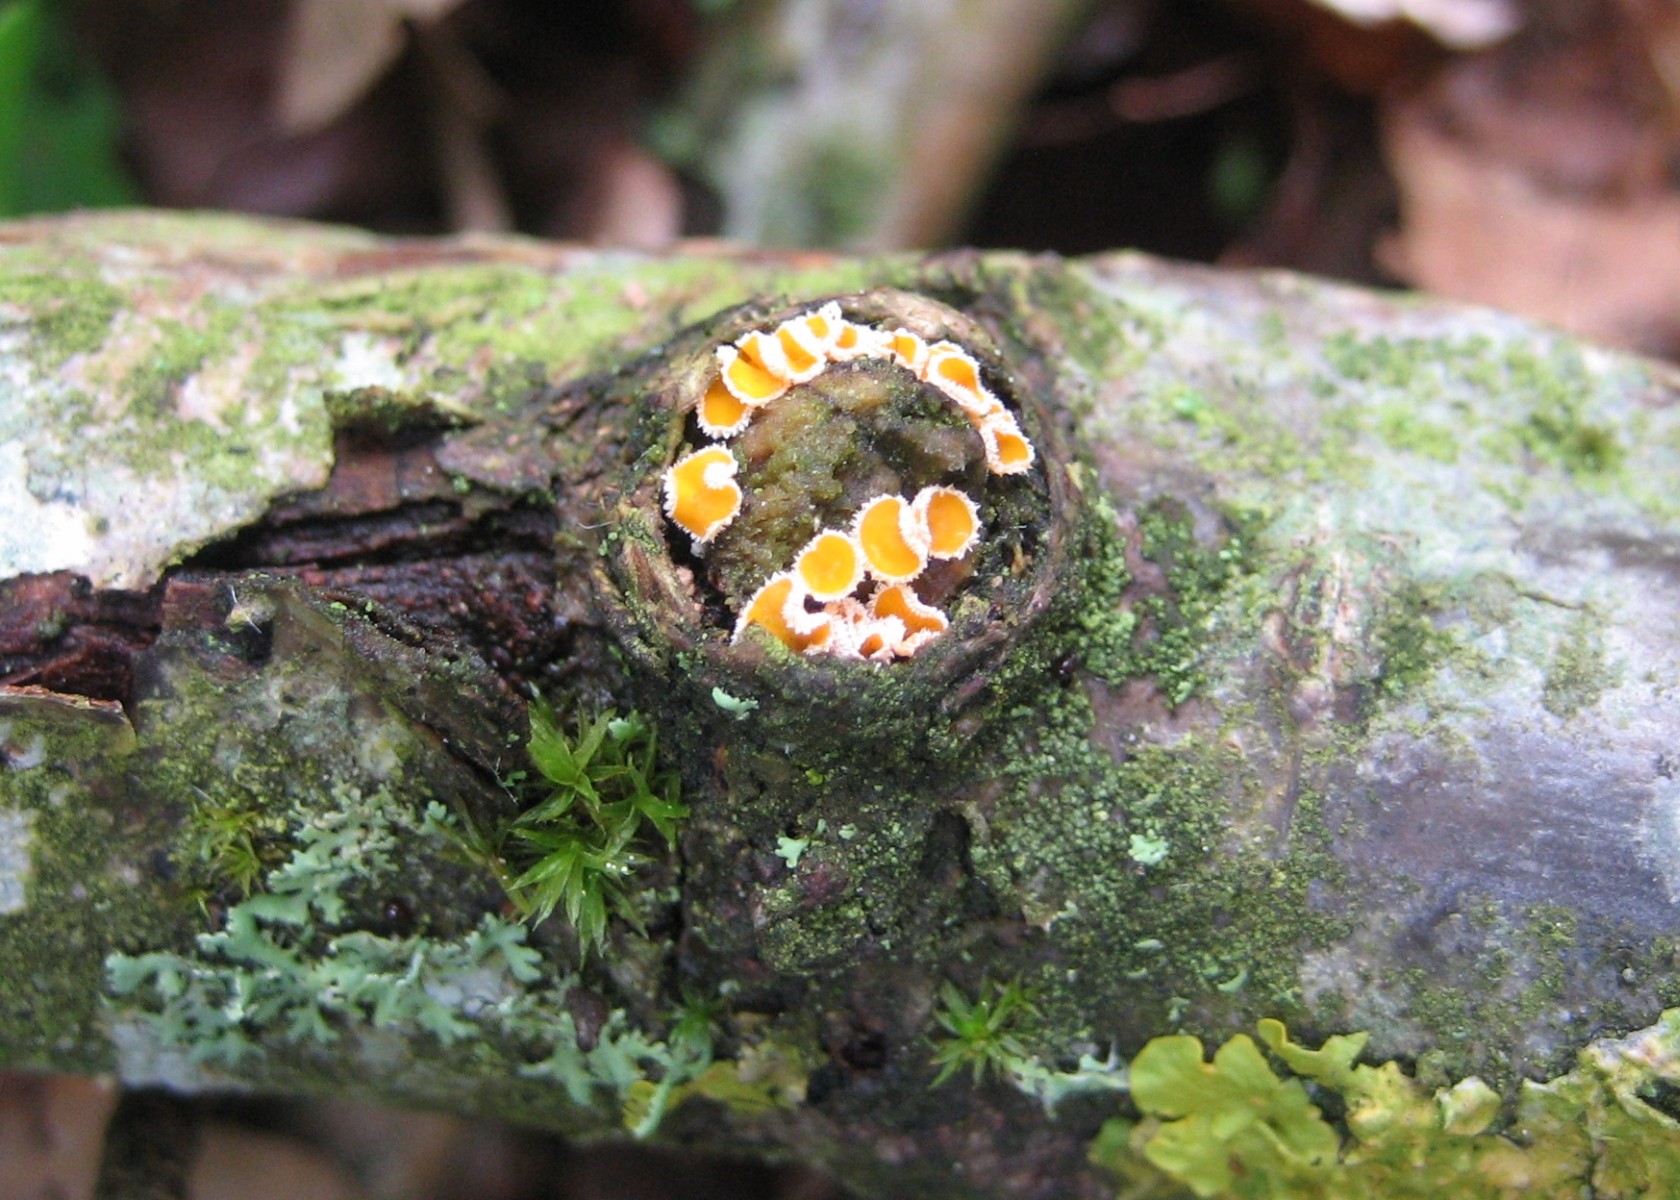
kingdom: Fungi
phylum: Ascomycota
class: Leotiomycetes
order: Helotiales
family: Lachnaceae
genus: Capitotricha
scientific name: Capitotricha bicolor
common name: prægtig frynseskive
